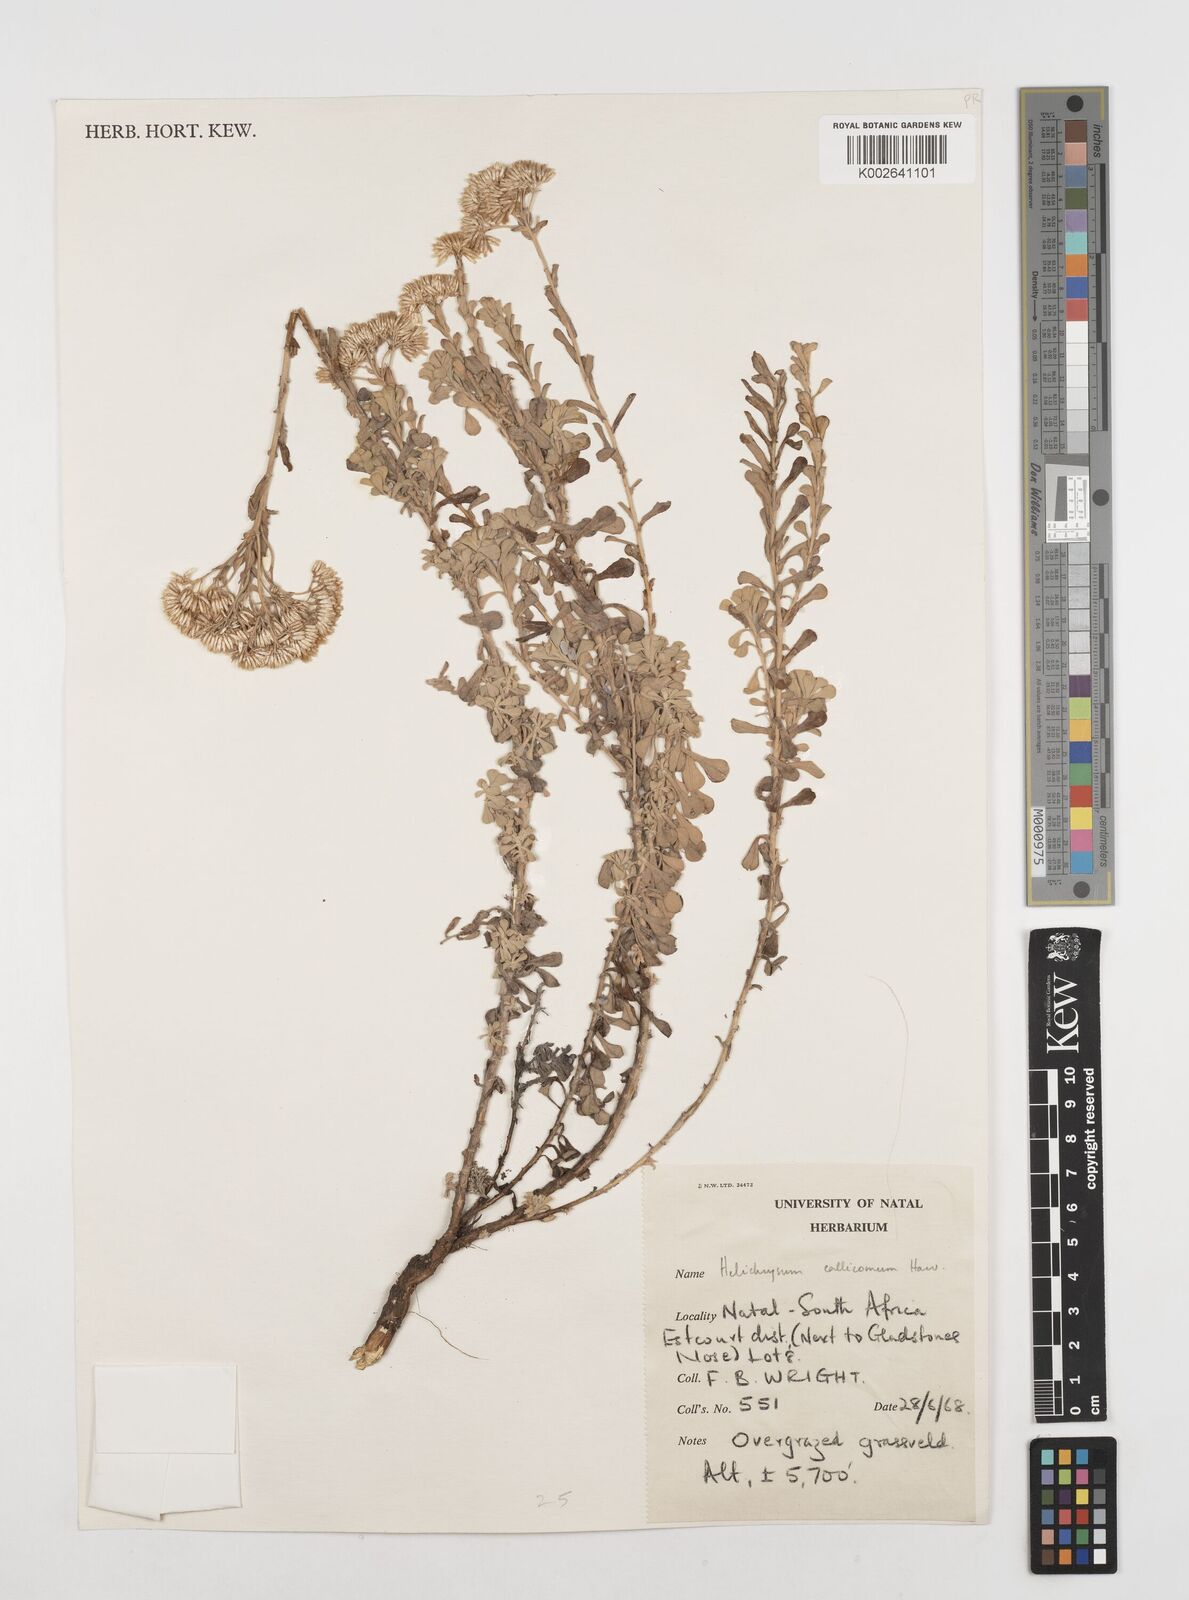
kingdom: Plantae
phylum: Tracheophyta
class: Magnoliopsida
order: Asterales
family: Asteraceae
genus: Helichrysum
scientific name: Helichrysum callicomum
